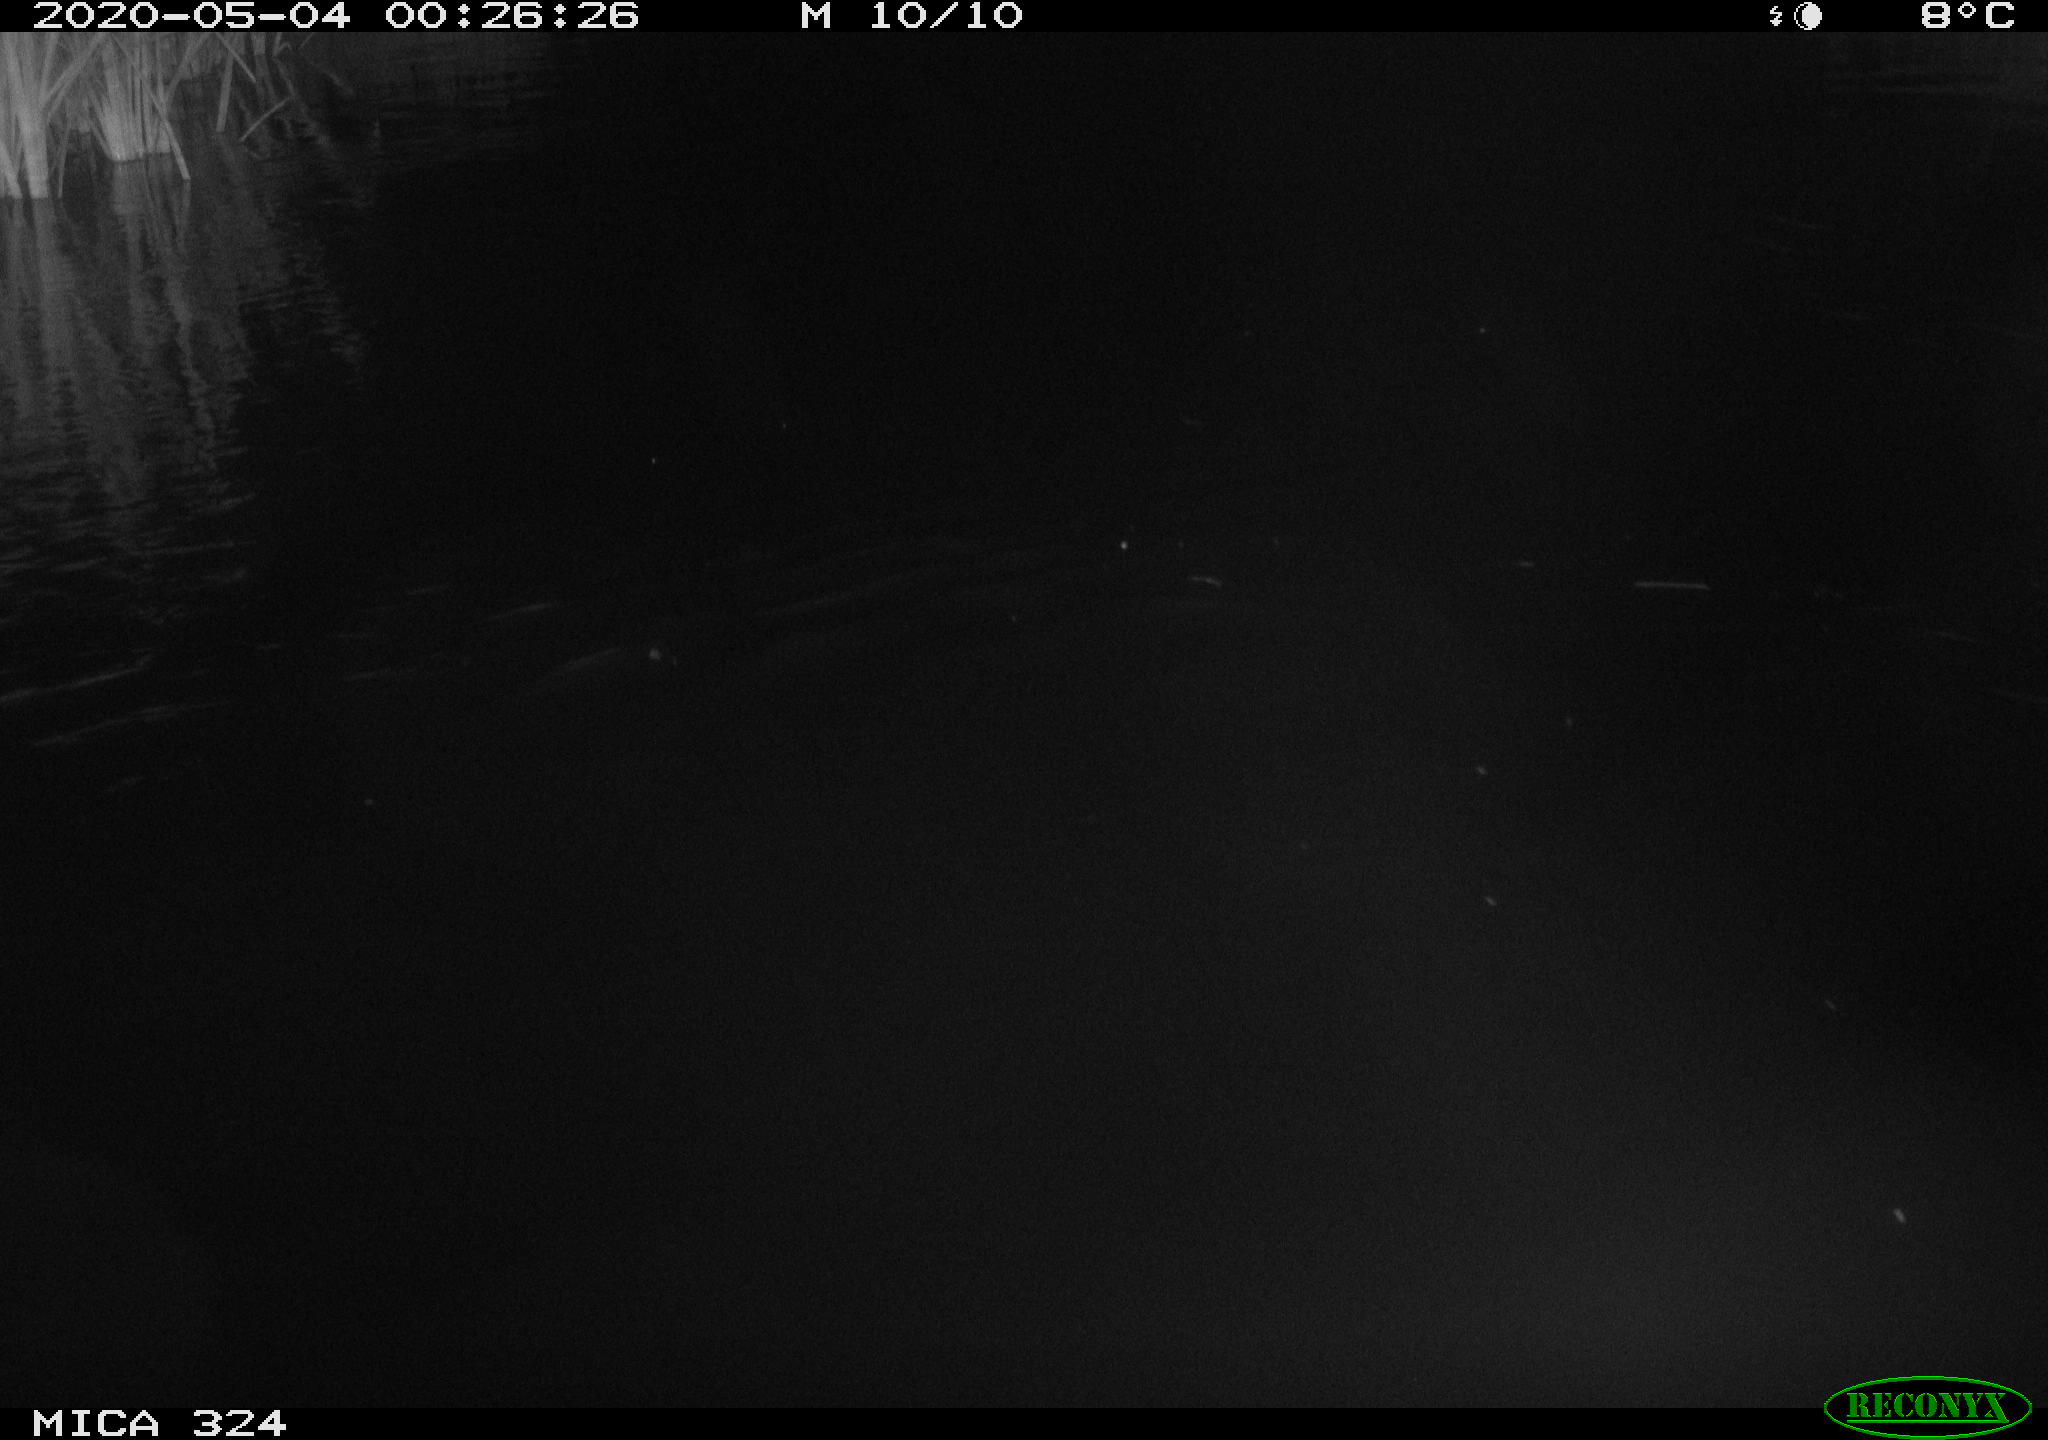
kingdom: Animalia
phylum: Chordata
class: Aves
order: Anseriformes
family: Anatidae
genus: Anas
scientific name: Anas platyrhynchos
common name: Mallard
